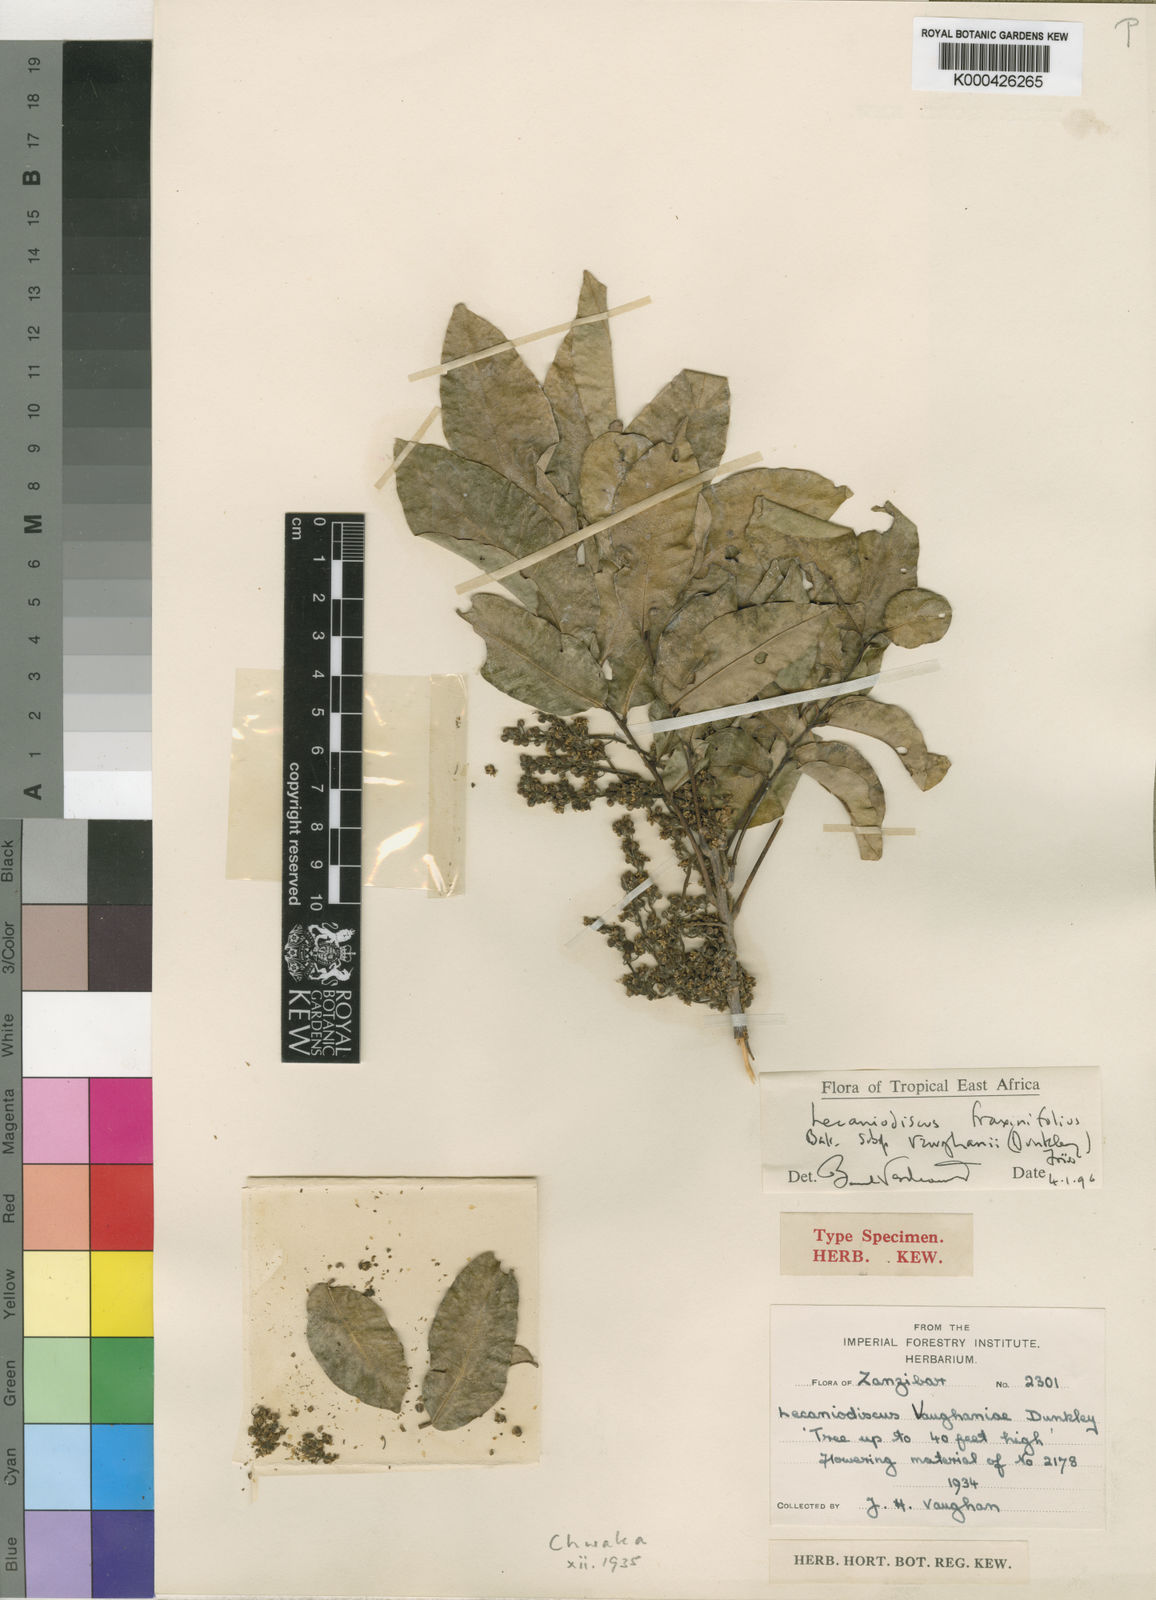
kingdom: Plantae
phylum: Tracheophyta
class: Magnoliopsida
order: Sapindales
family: Sapindaceae
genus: Lecaniodiscus
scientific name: Lecaniodiscus fraxinifolius
